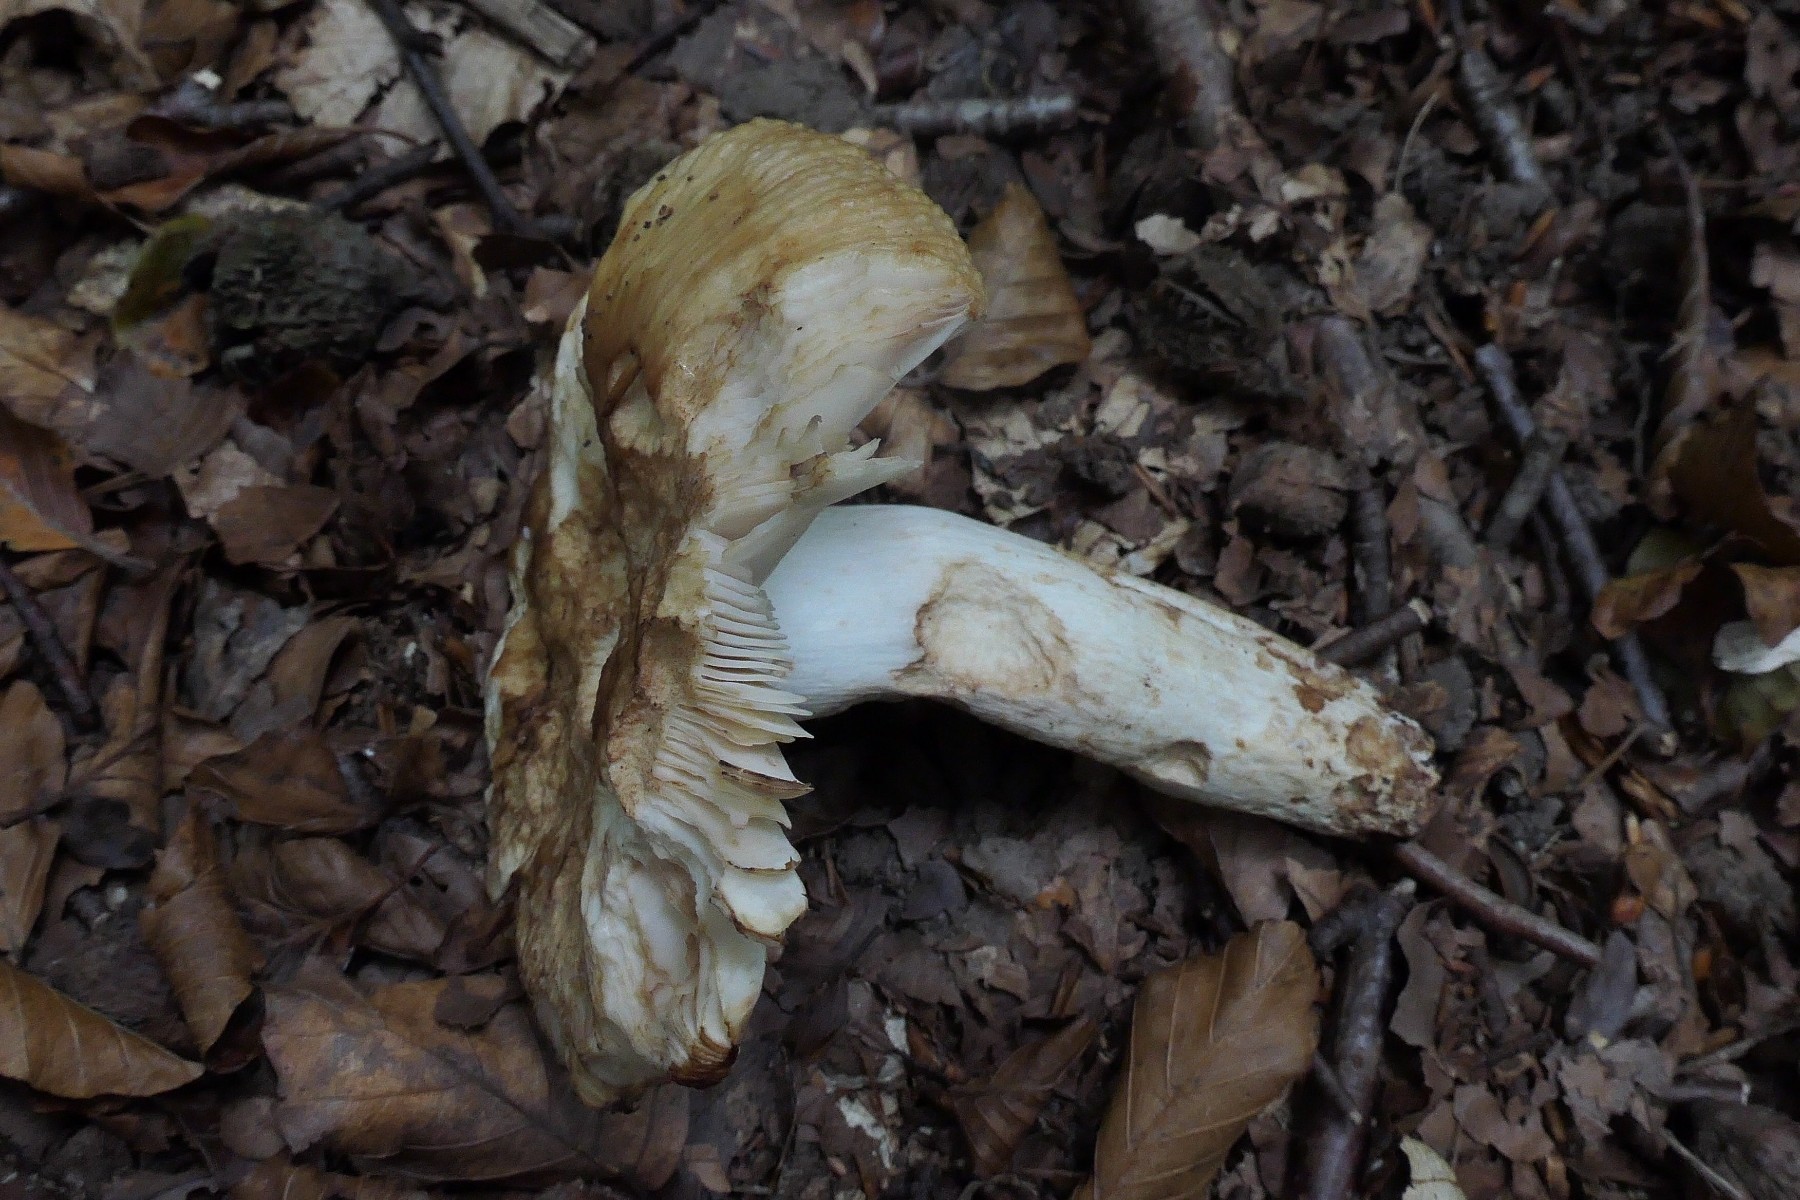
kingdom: Fungi
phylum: Basidiomycota
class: Agaricomycetes
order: Russulales
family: Russulaceae
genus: Russula
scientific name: Russula foetens
